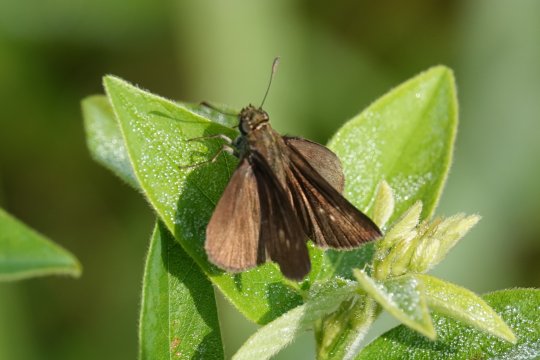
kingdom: Animalia
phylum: Arthropoda
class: Insecta
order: Lepidoptera
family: Hesperiidae
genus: Euphyes
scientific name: Euphyes vestris
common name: Dun Skipper
